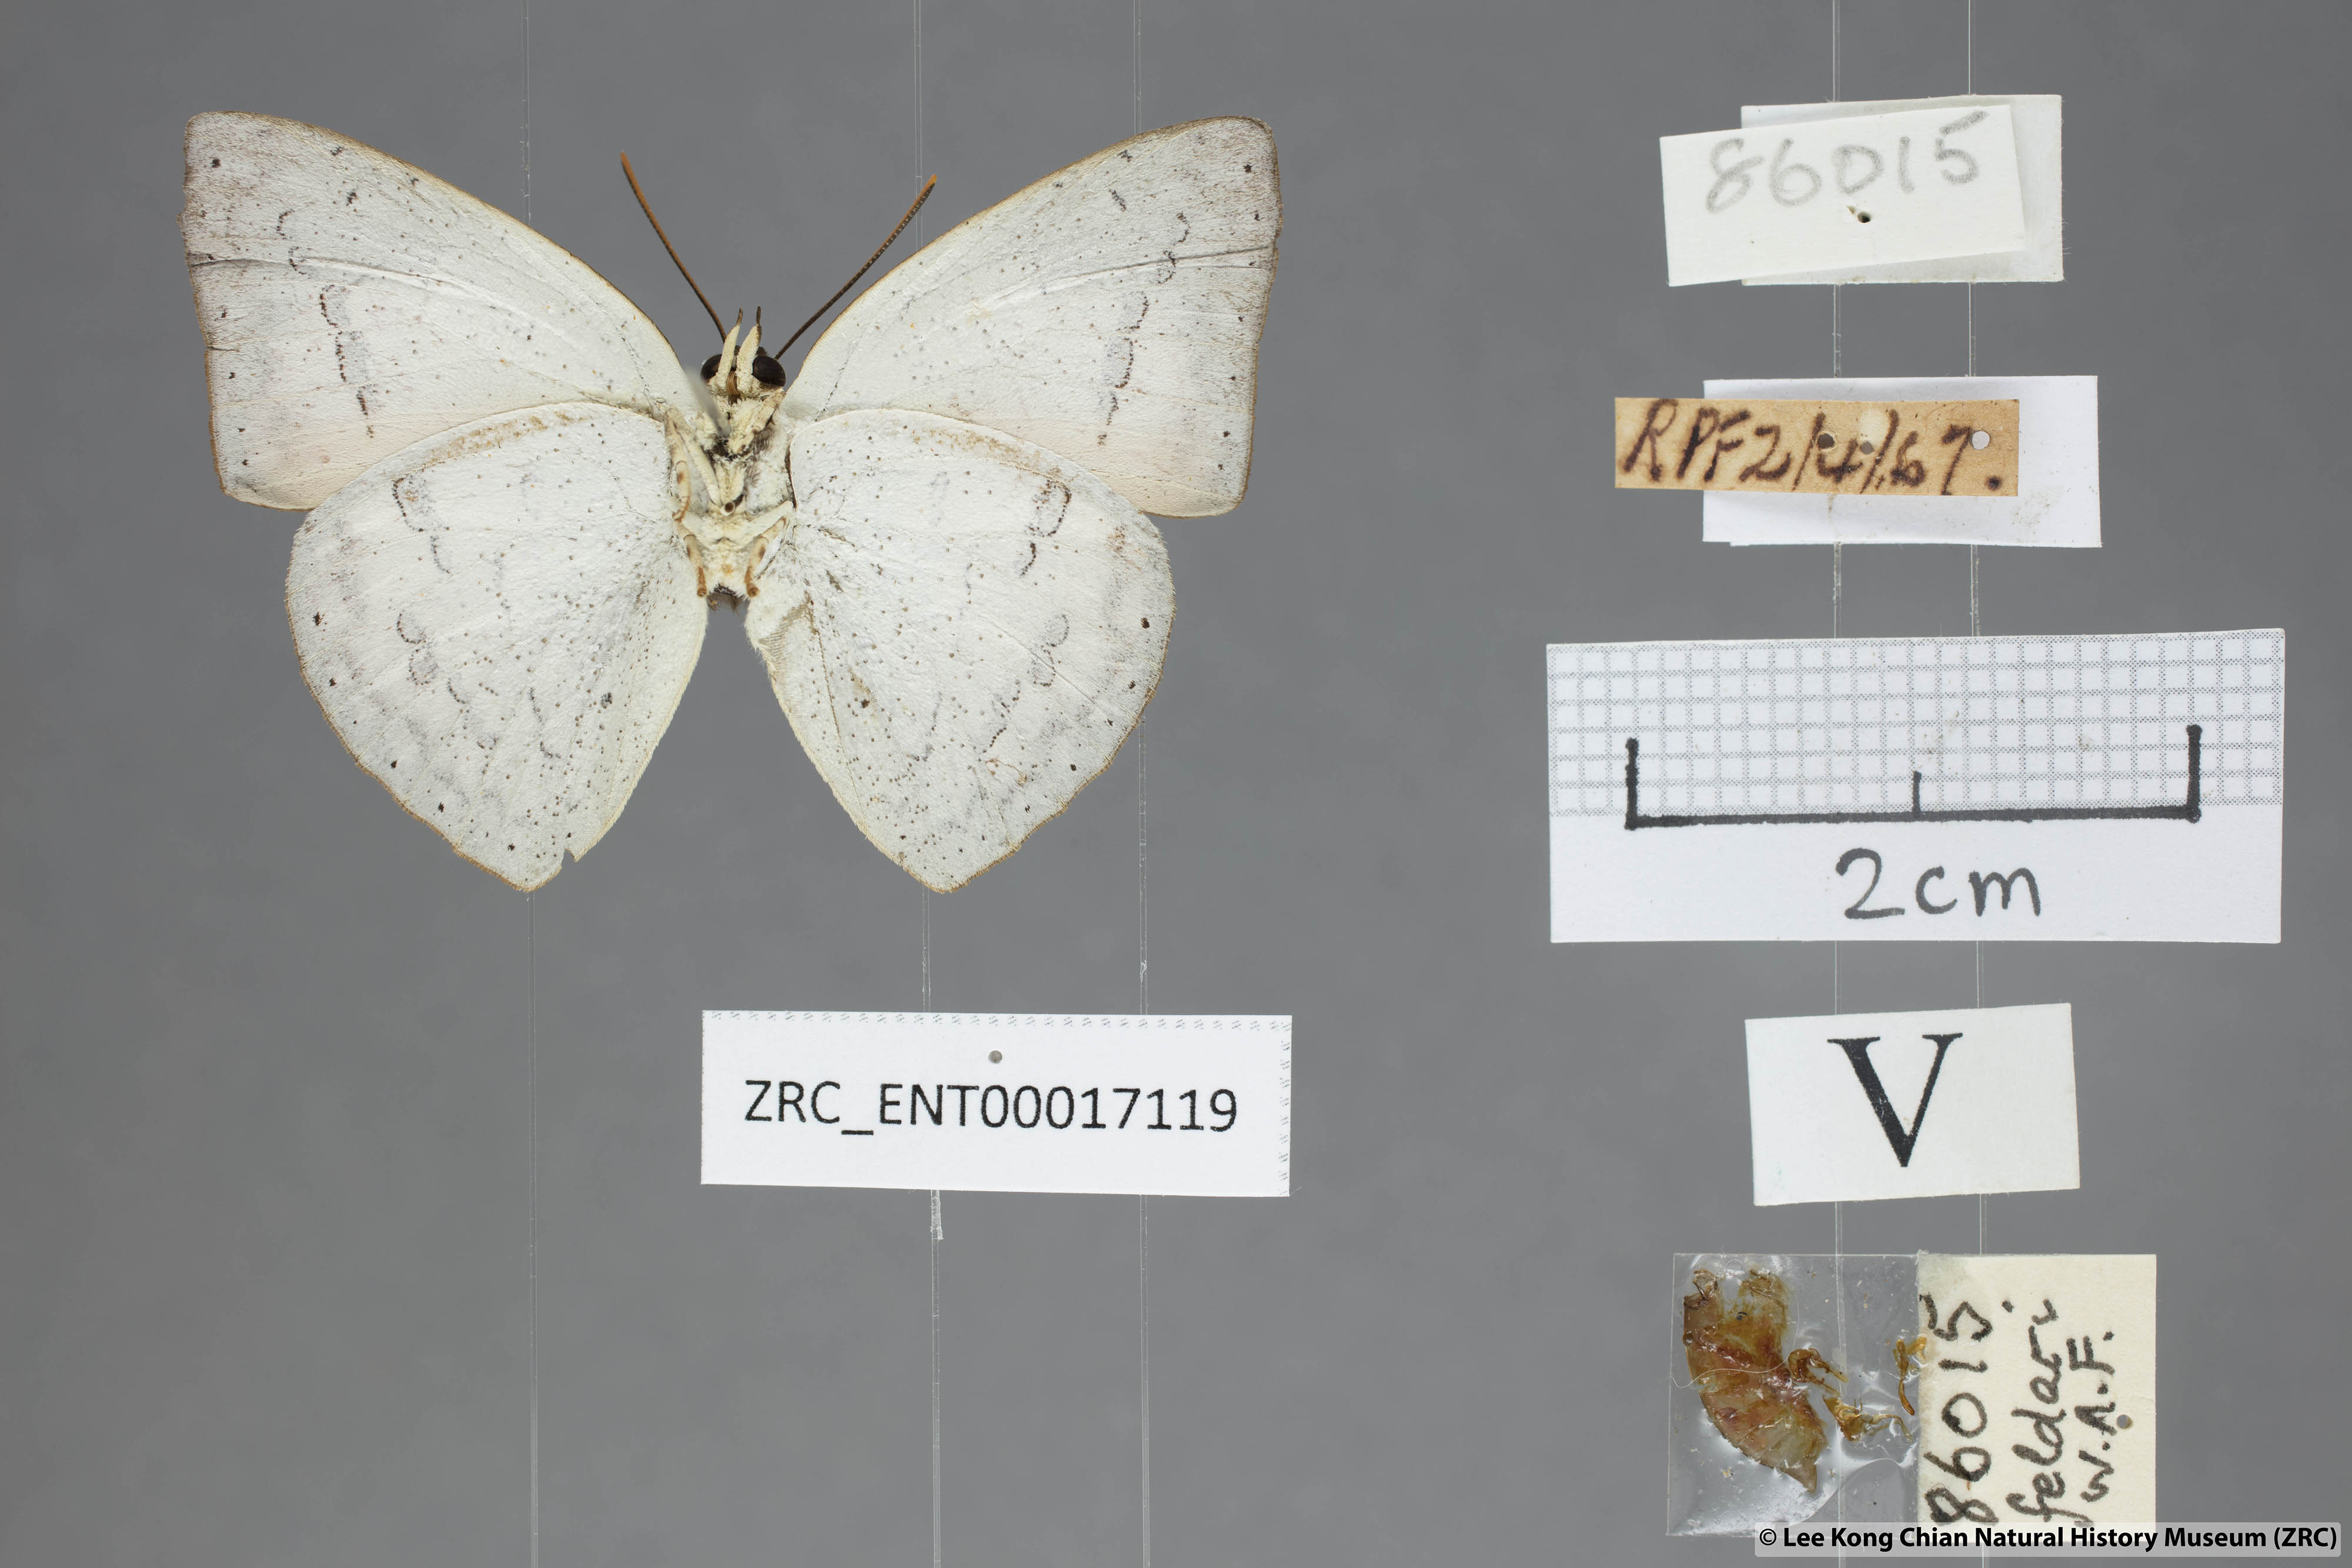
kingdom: Animalia
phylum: Arthropoda
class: Insecta
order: Lepidoptera
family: Lycaenidae
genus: Curetis
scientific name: Curetis felderi
